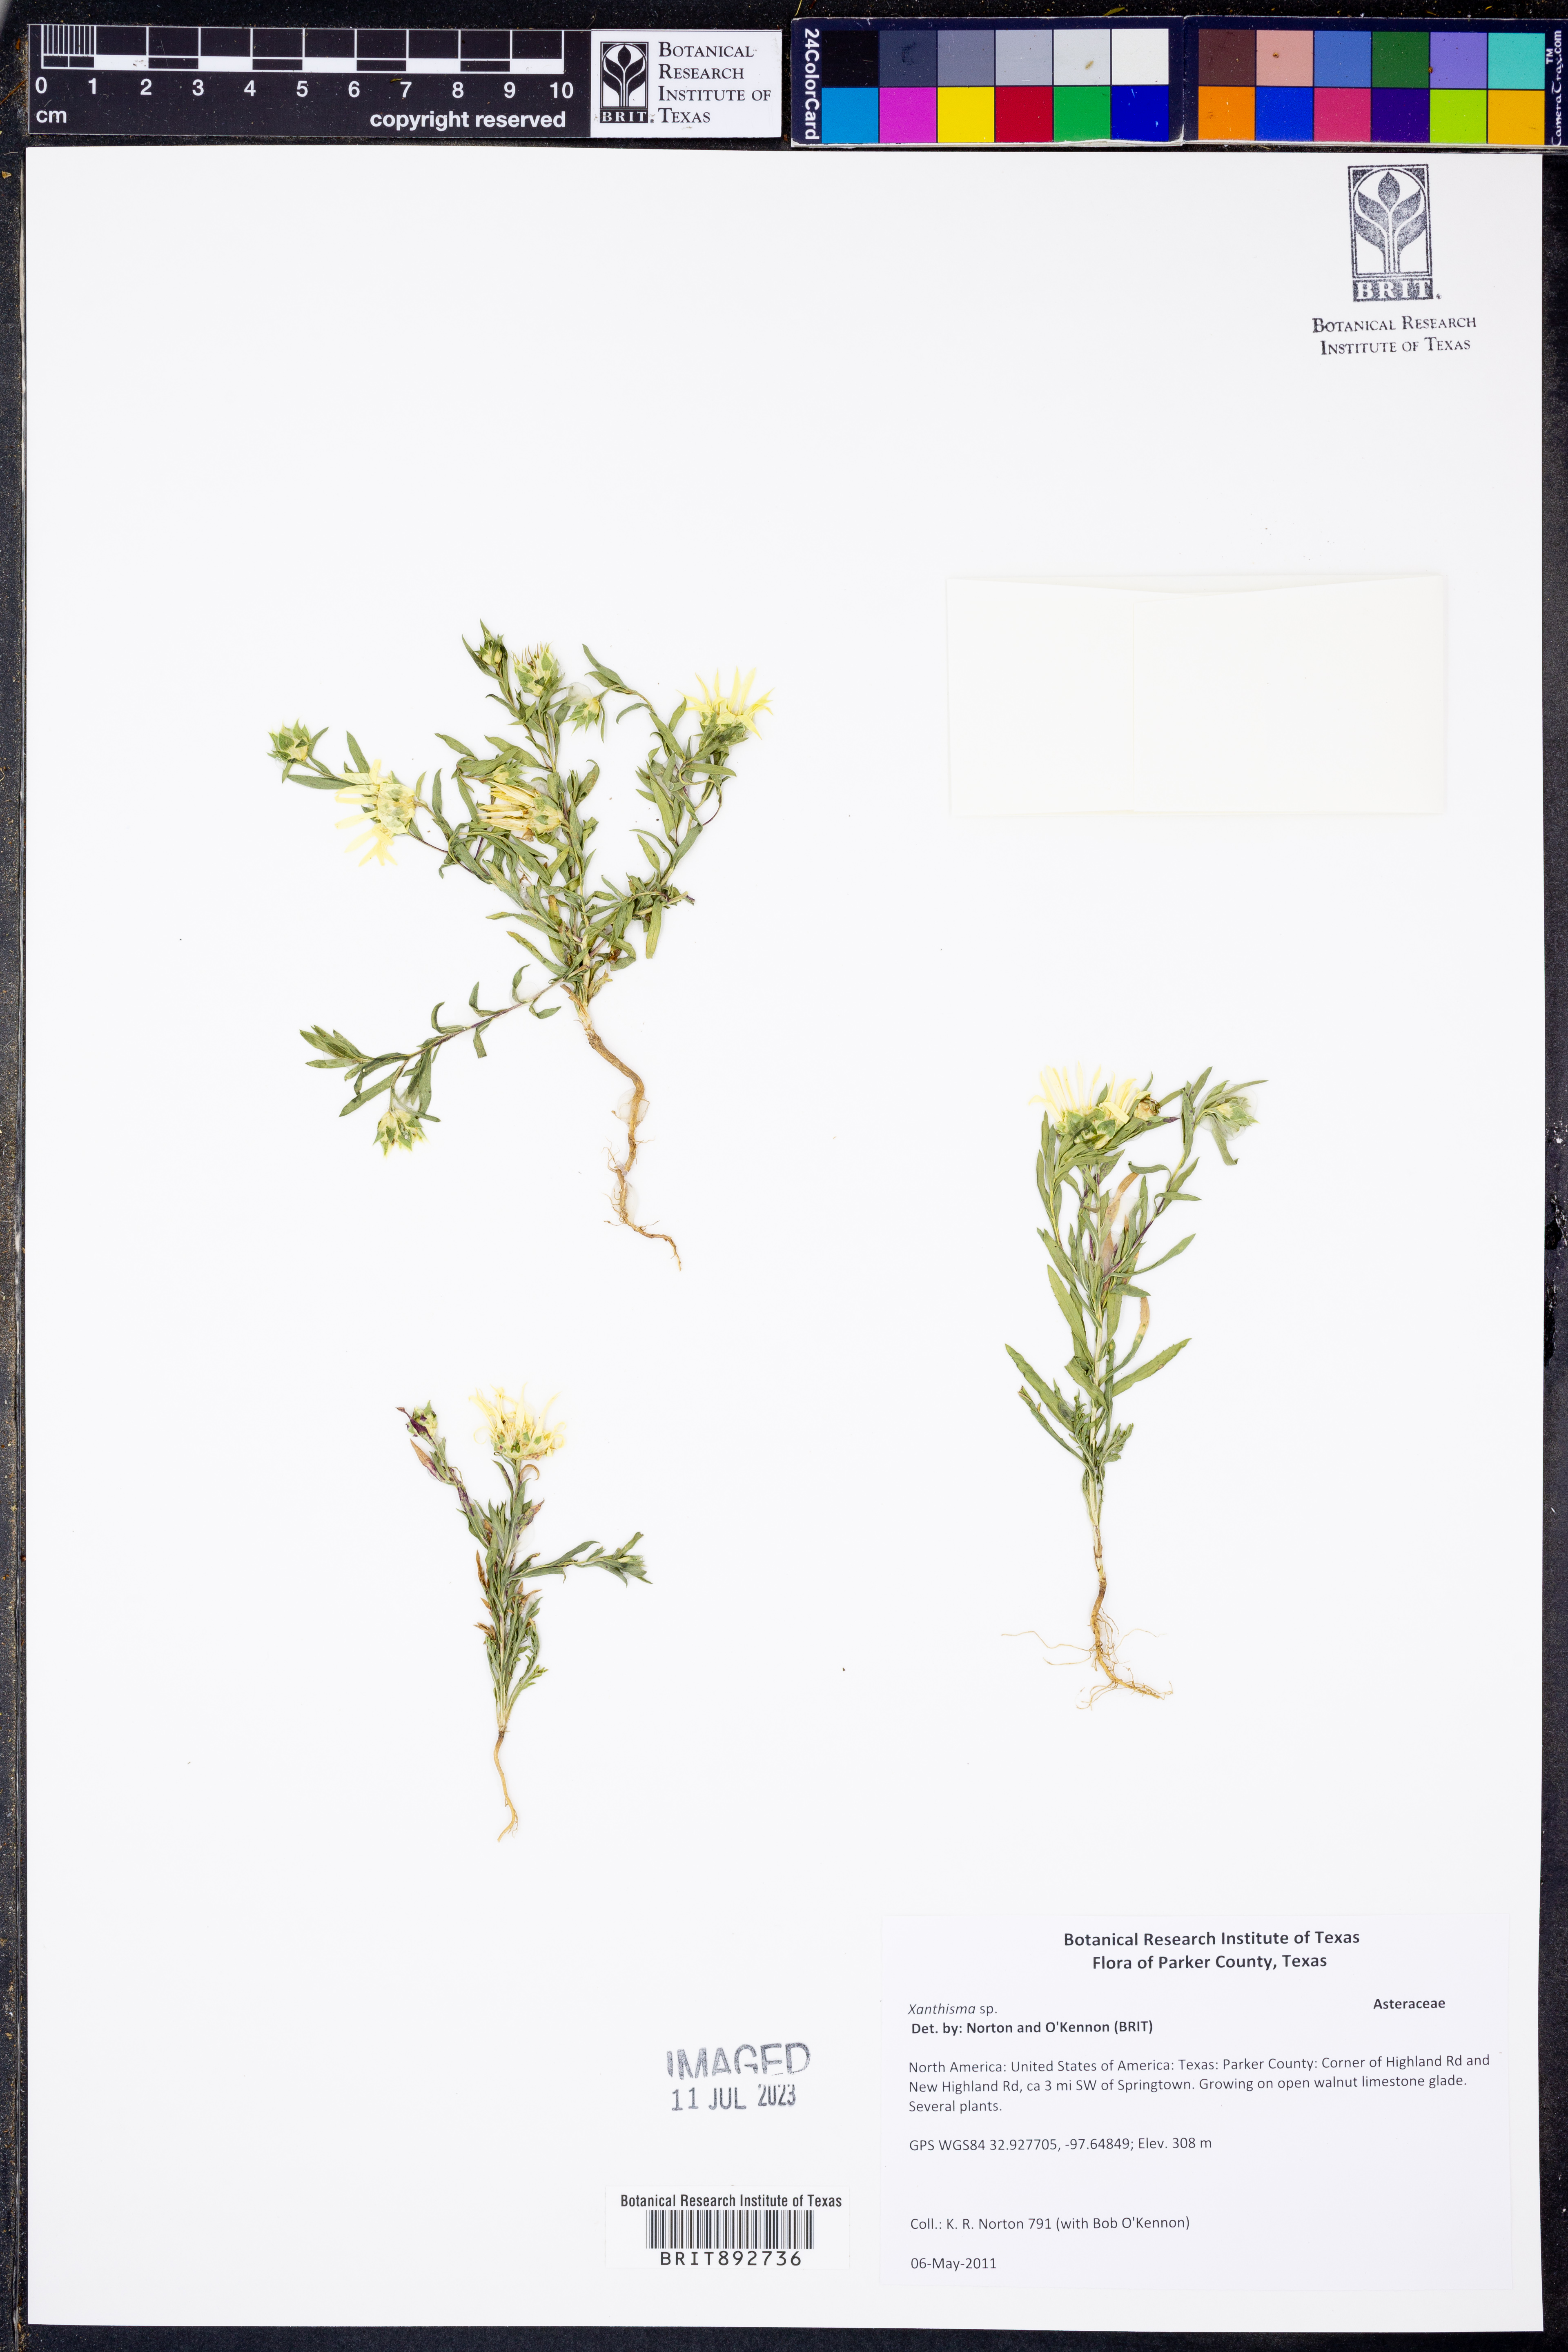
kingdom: Plantae
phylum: Tracheophyta
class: Magnoliopsida
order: Asterales
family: Asteraceae
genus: Xanthisma
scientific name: Xanthisma
